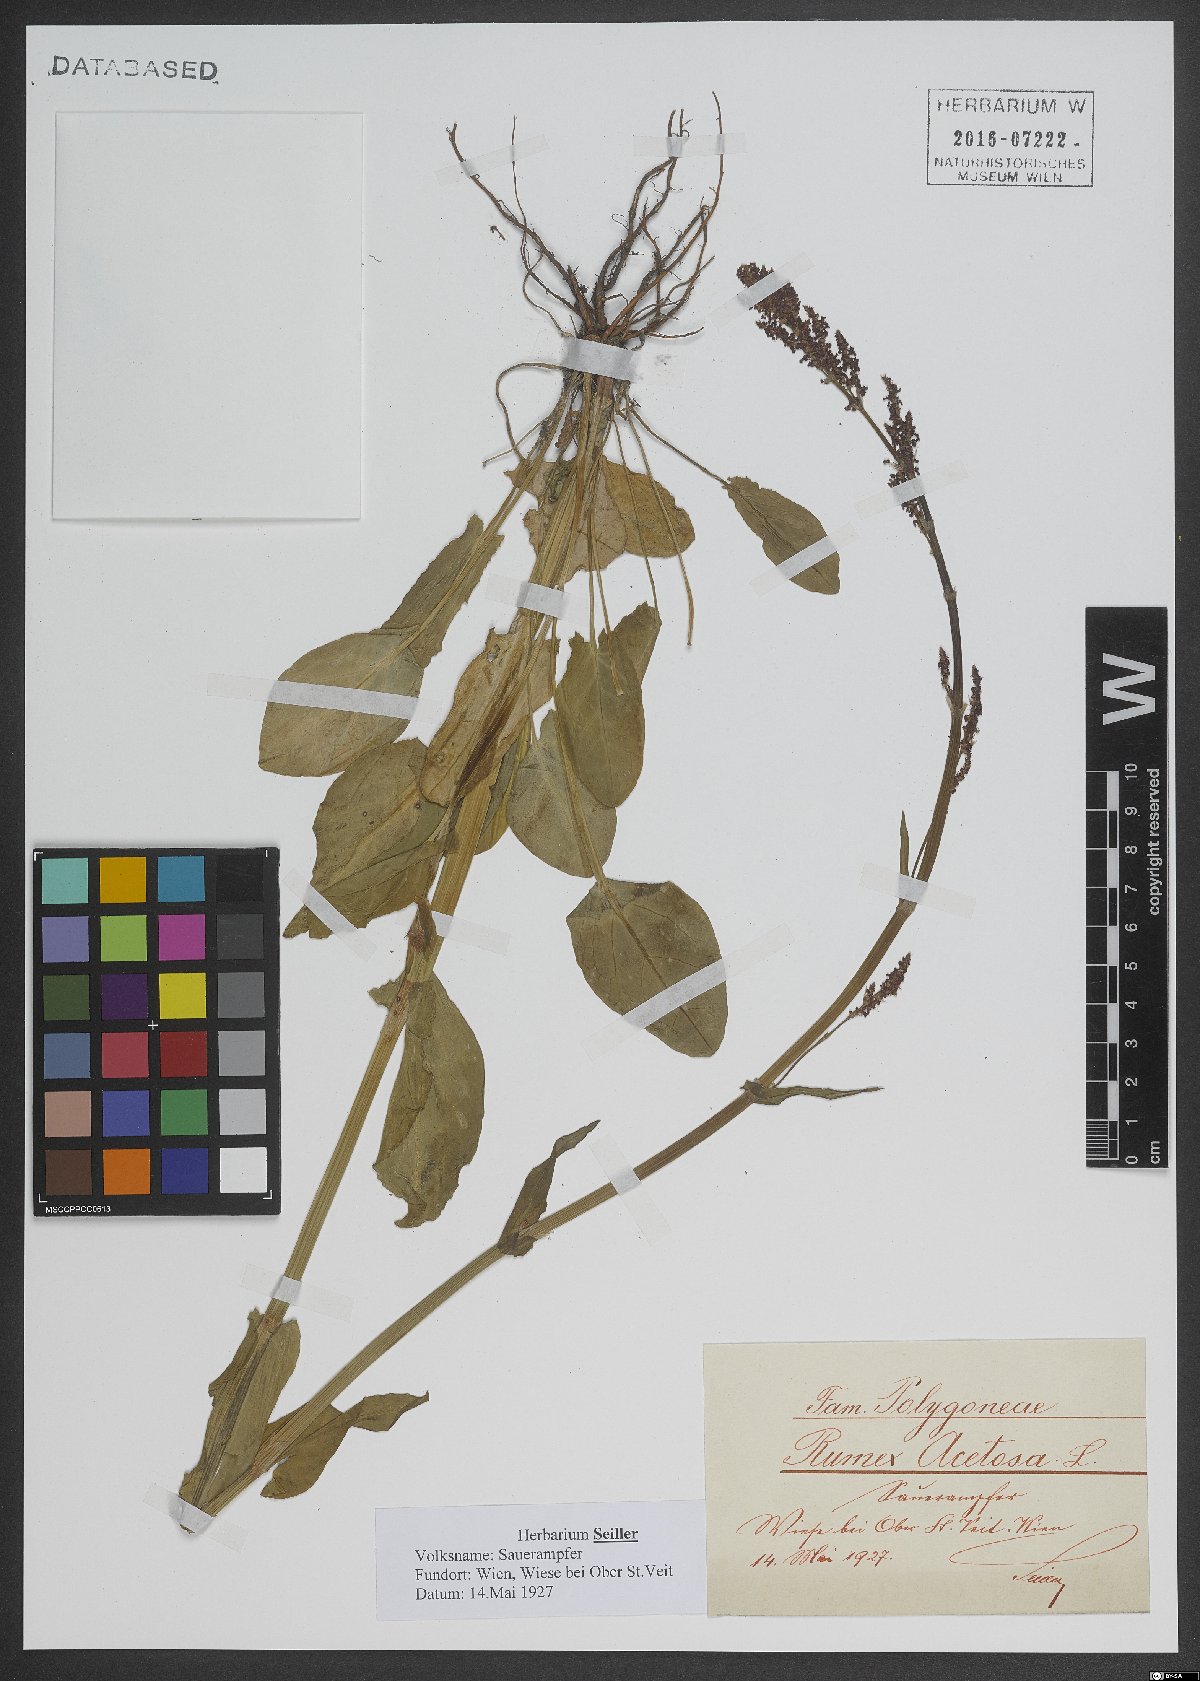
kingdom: Plantae
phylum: Tracheophyta
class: Magnoliopsida
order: Caryophyllales
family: Polygonaceae
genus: Rumex
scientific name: Rumex acetosa
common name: Garden sorrel
